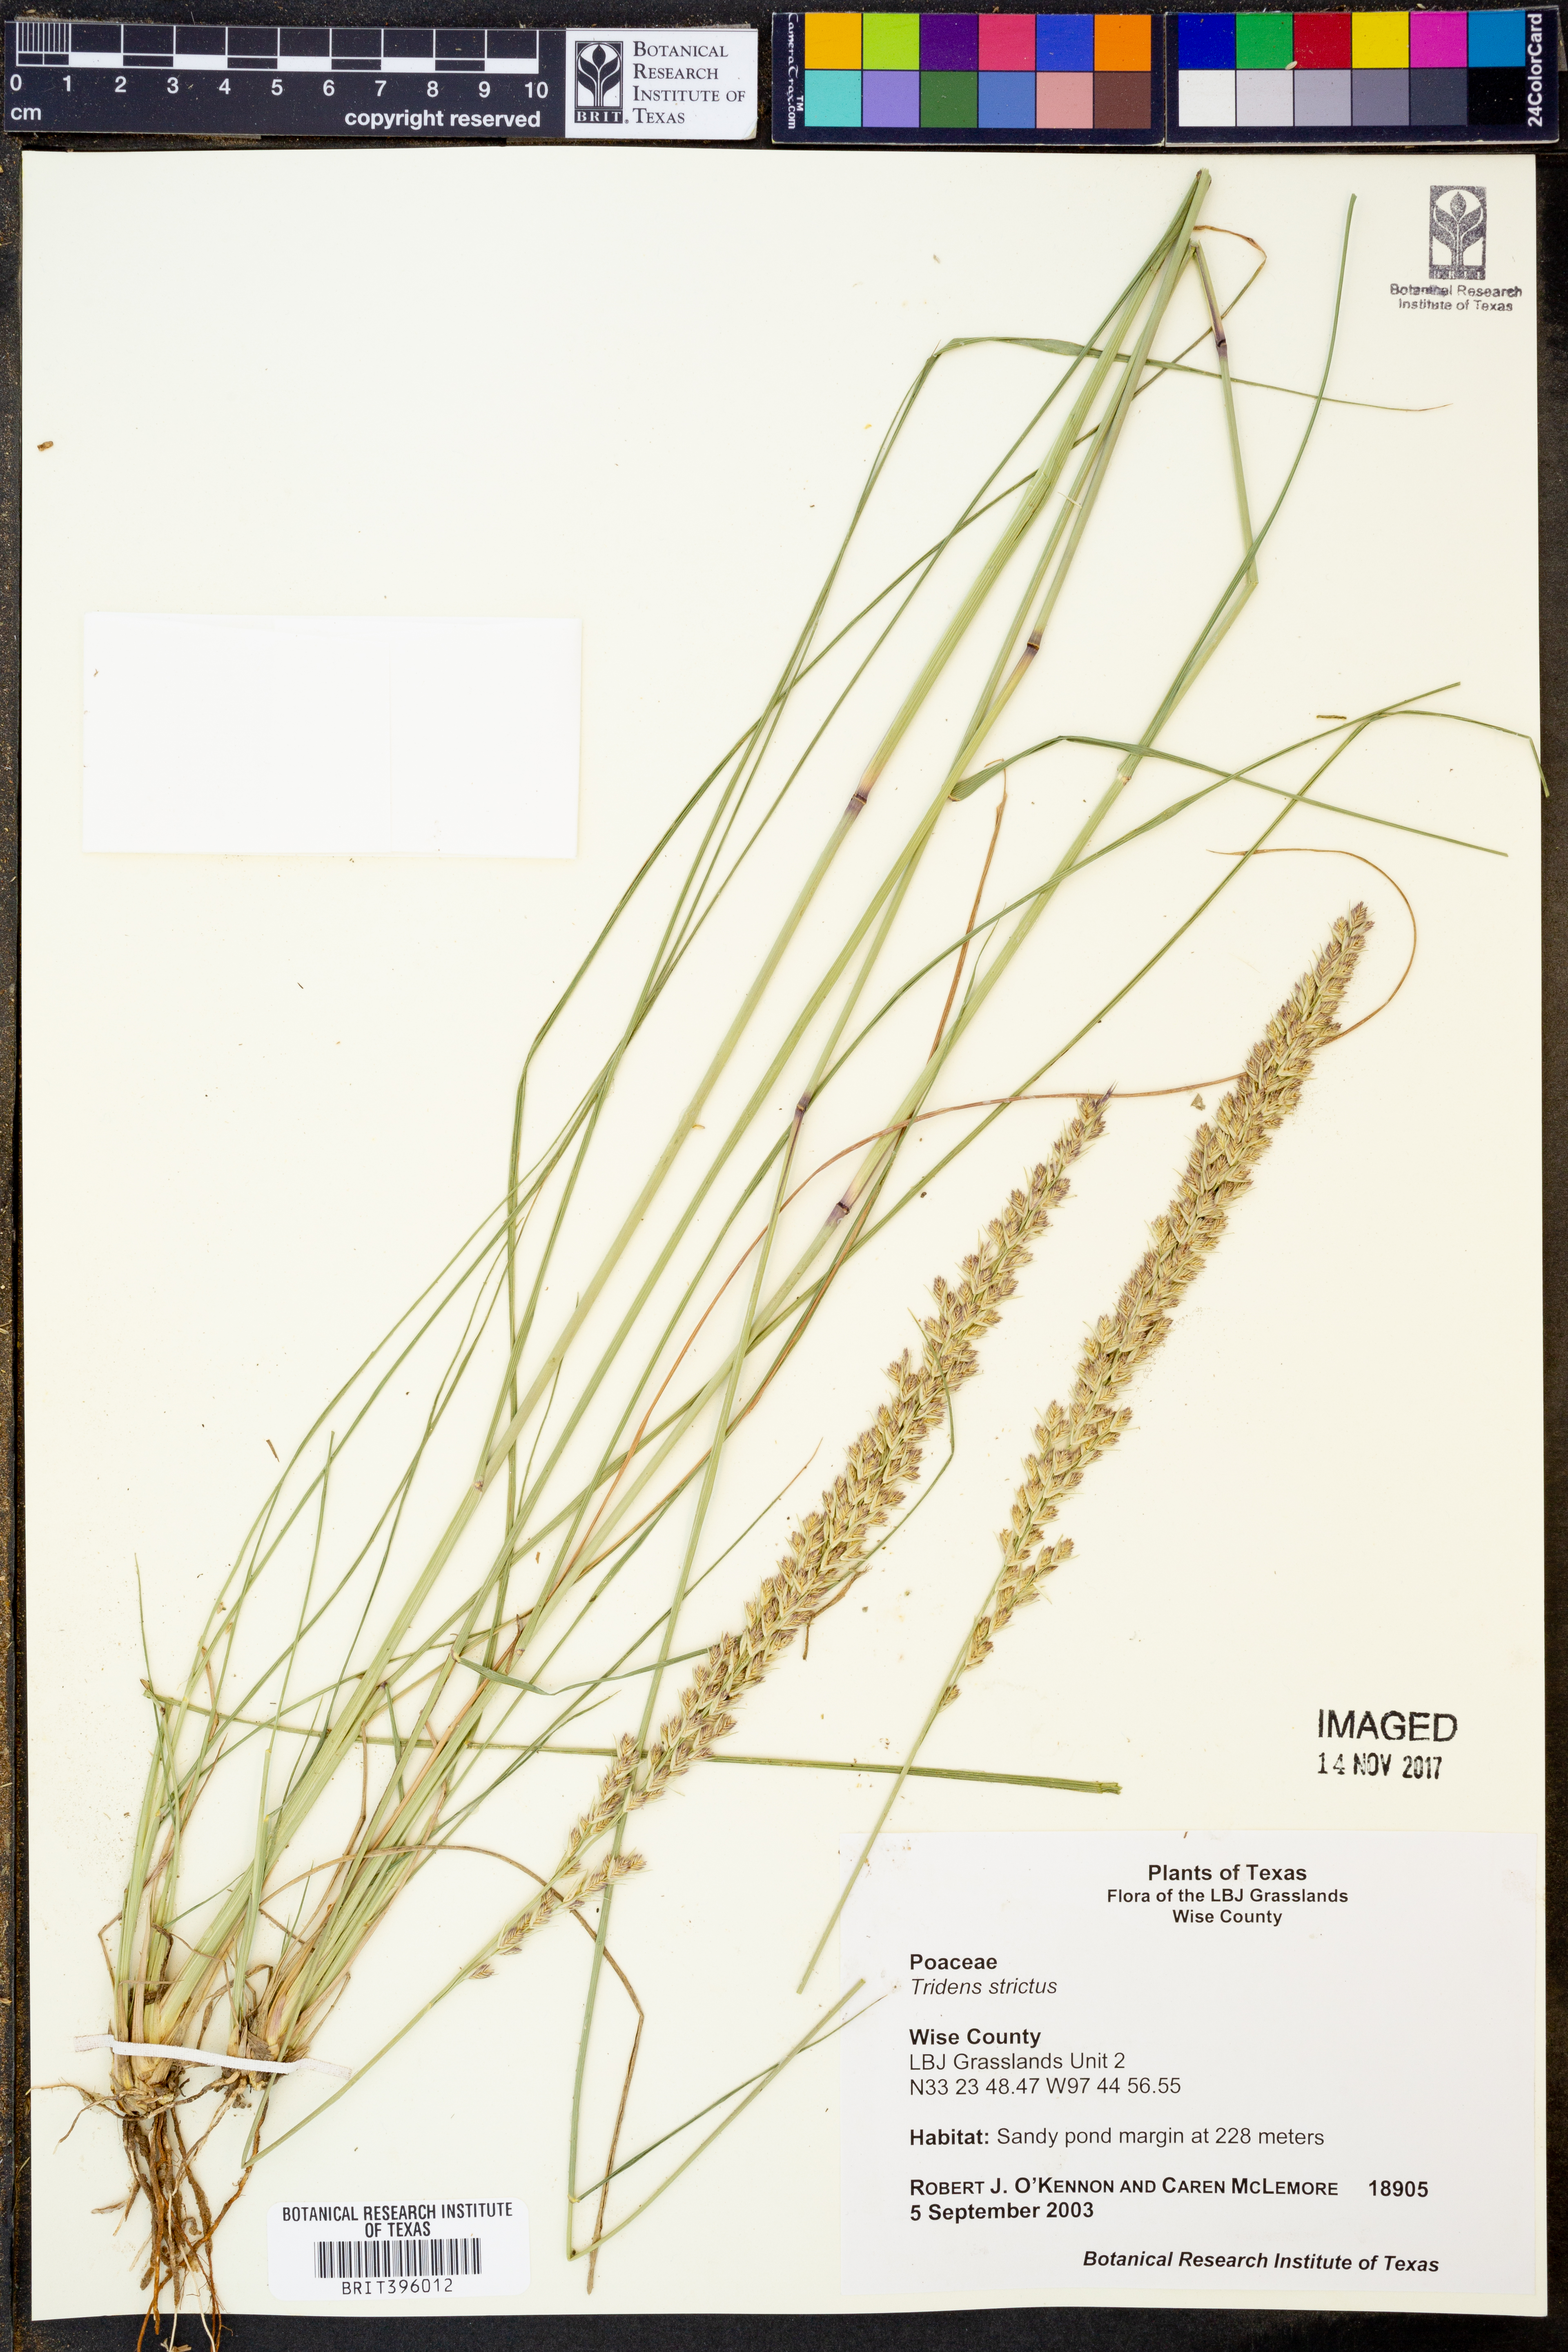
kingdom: Plantae
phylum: Tracheophyta
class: Liliopsida
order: Poales
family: Poaceae
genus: Tridens
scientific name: Tridens strictus
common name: Long-spike tridens
